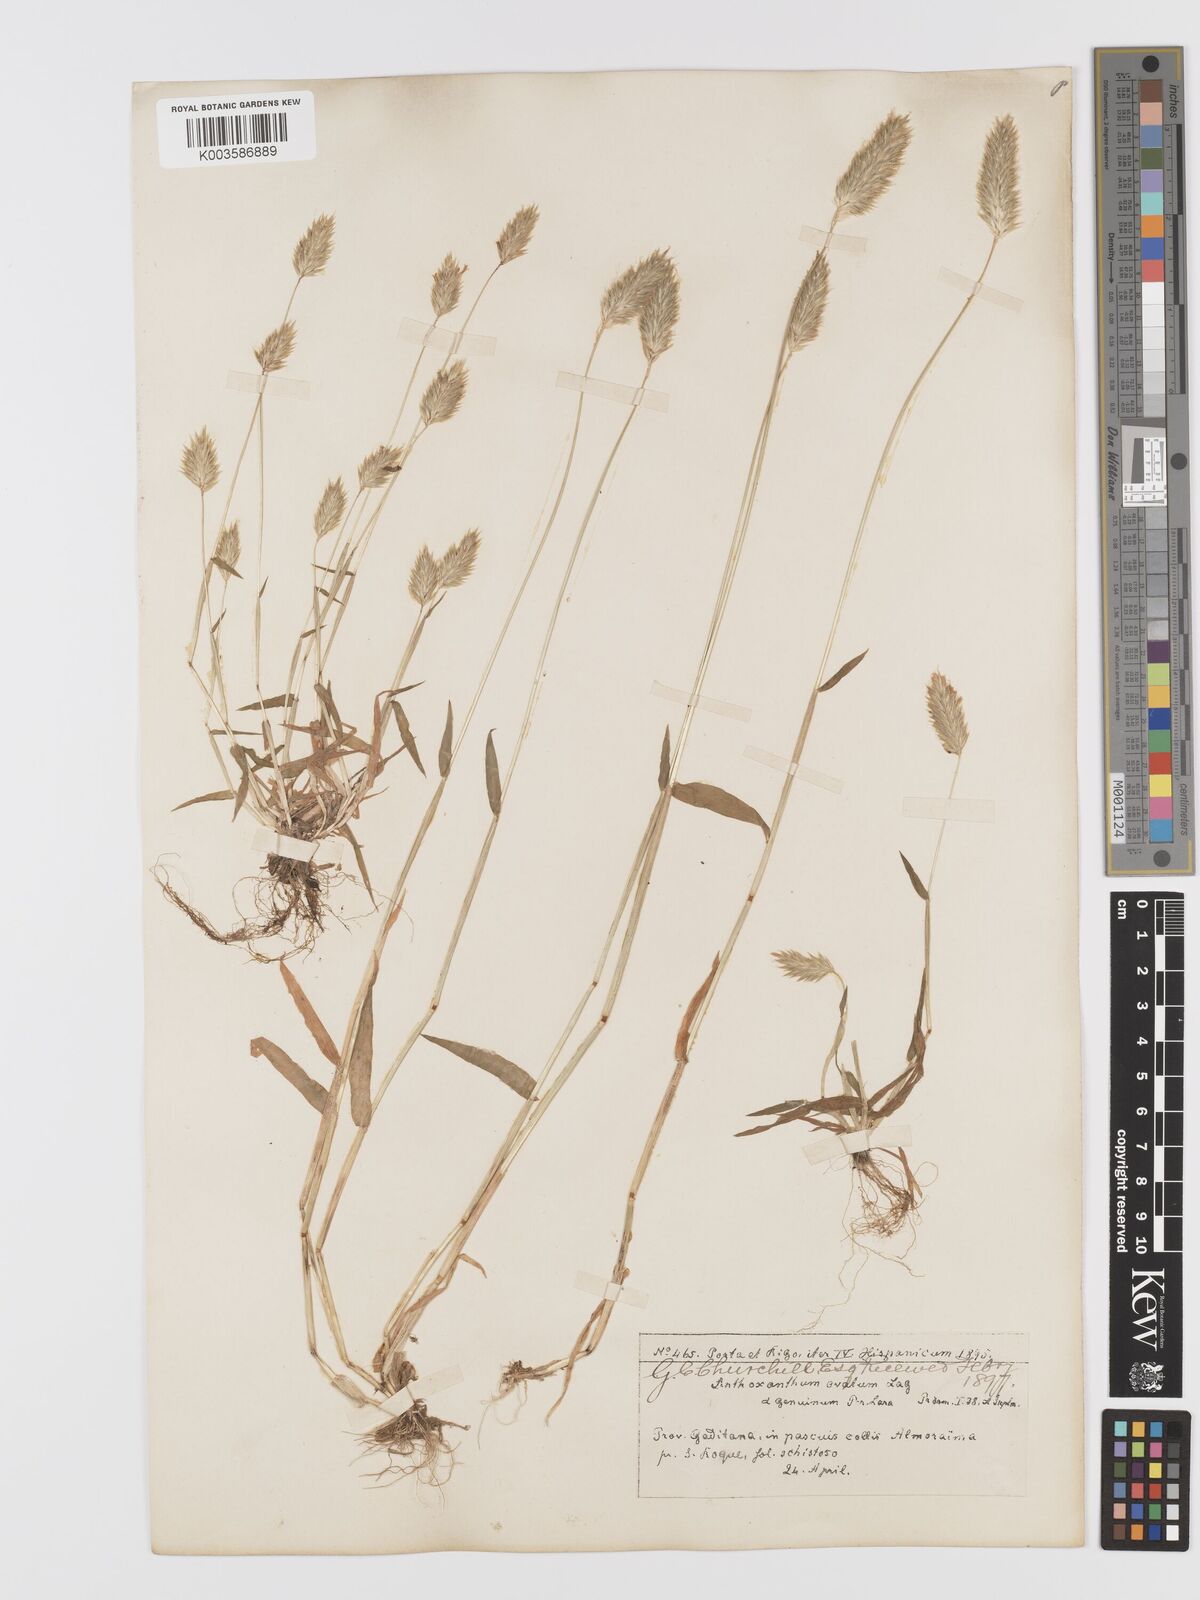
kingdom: Plantae
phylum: Tracheophyta
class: Liliopsida
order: Poales
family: Poaceae
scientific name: Poaceae
